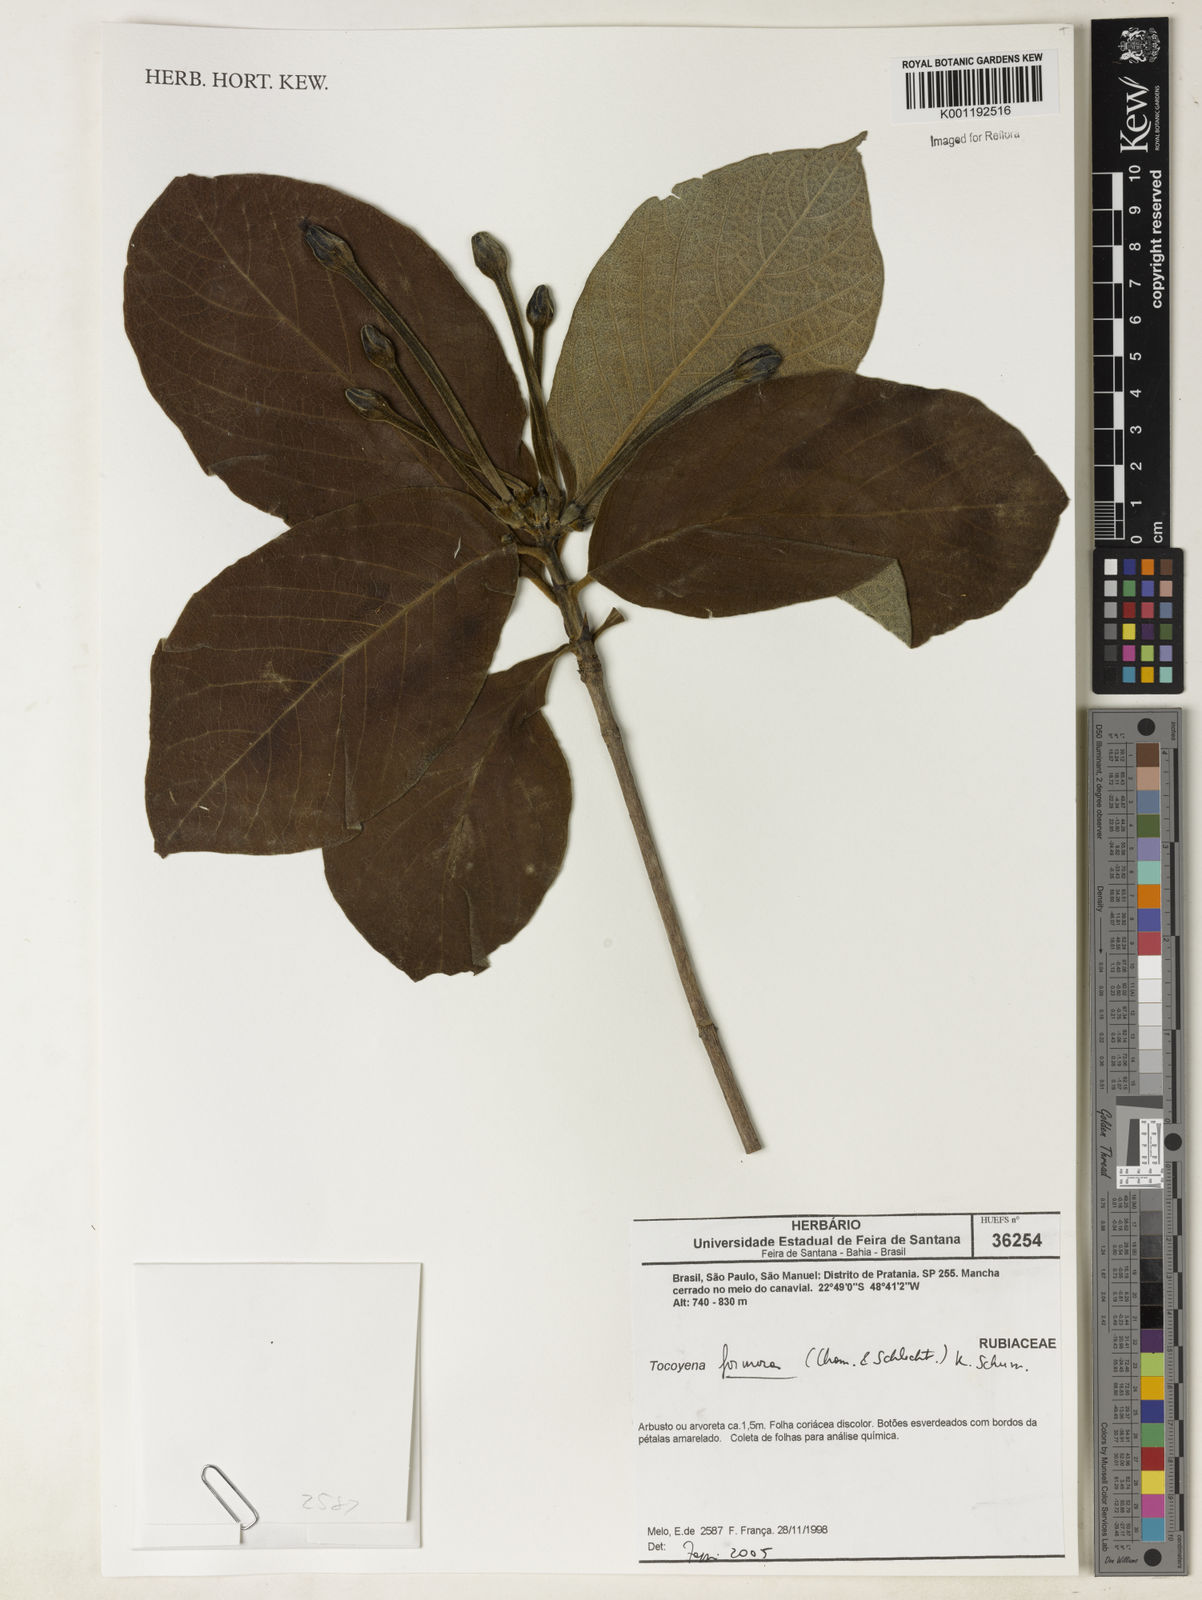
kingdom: Plantae
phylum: Tracheophyta
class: Magnoliopsida
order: Gentianales
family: Rubiaceae
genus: Tocoyena
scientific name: Tocoyena formosa
